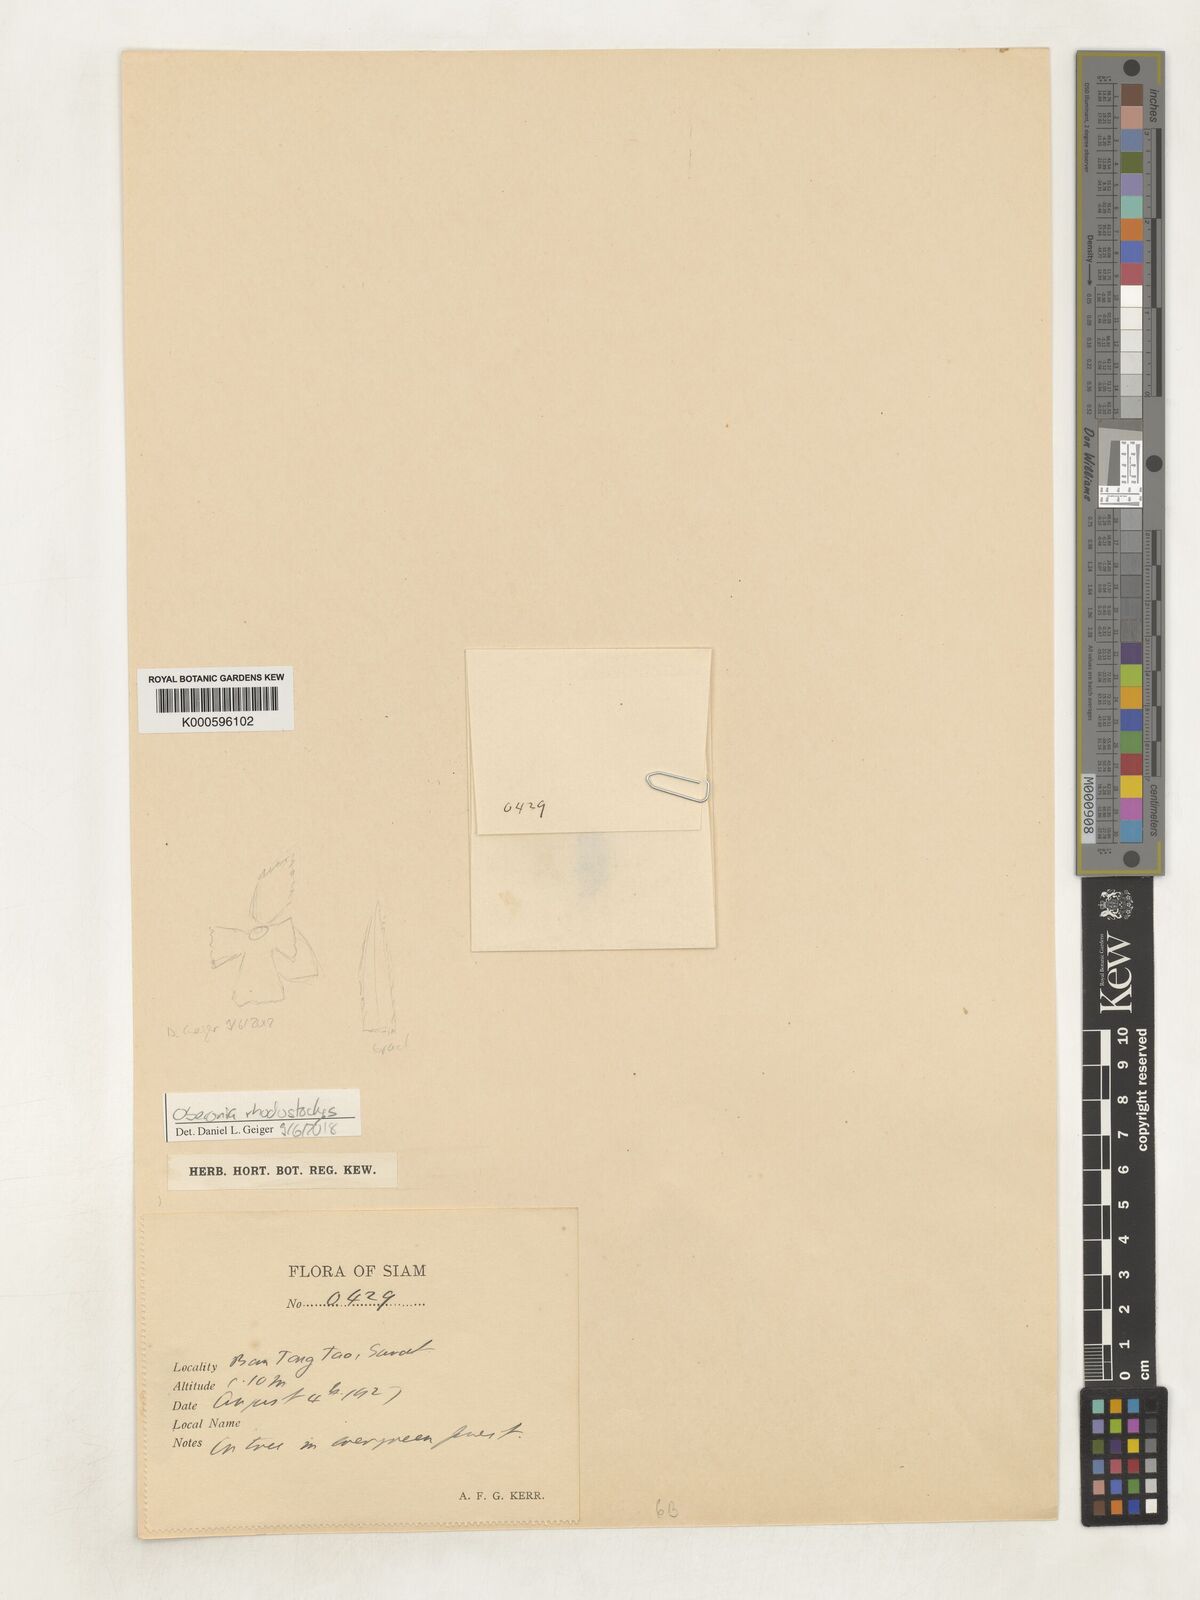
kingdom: Plantae
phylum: Tracheophyta
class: Liliopsida
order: Asparagales
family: Orchidaceae
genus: Oberonia
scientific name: Oberonia insectifera
